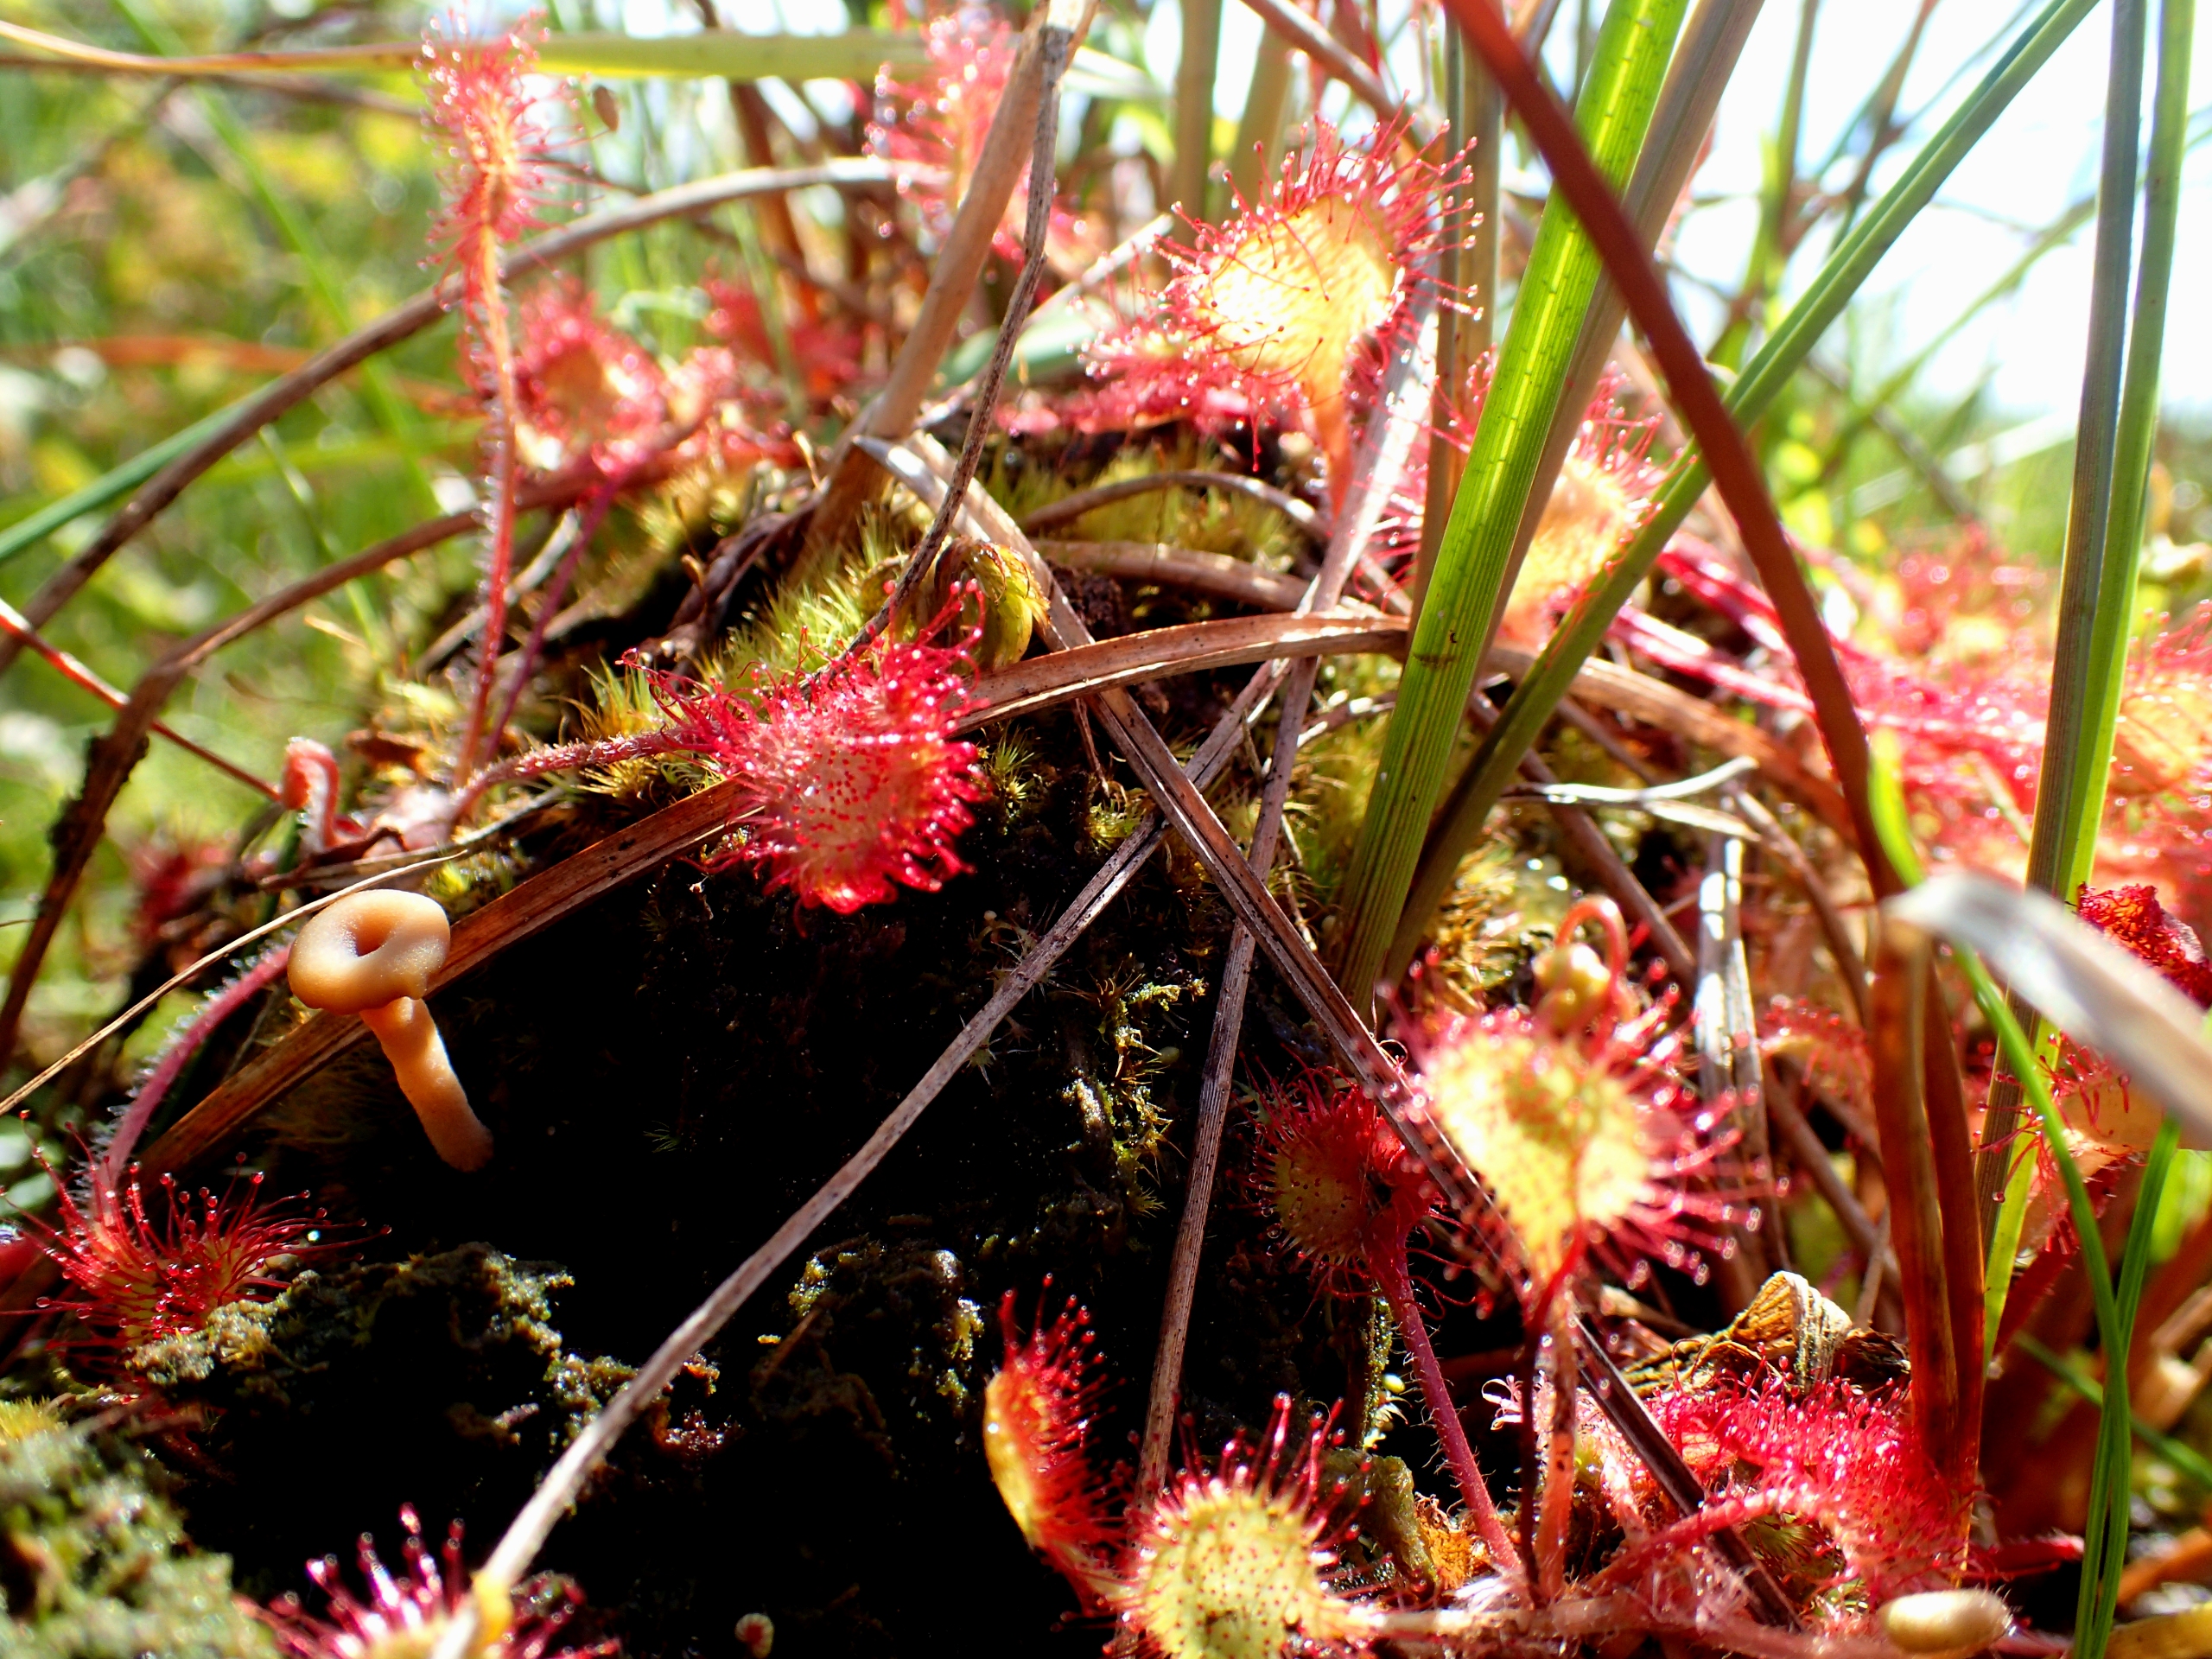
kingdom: Plantae
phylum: Tracheophyta
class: Magnoliopsida
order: Caryophyllales
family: Droseraceae
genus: Drosera
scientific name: Drosera rotundifolia
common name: Rundbladet soldug
